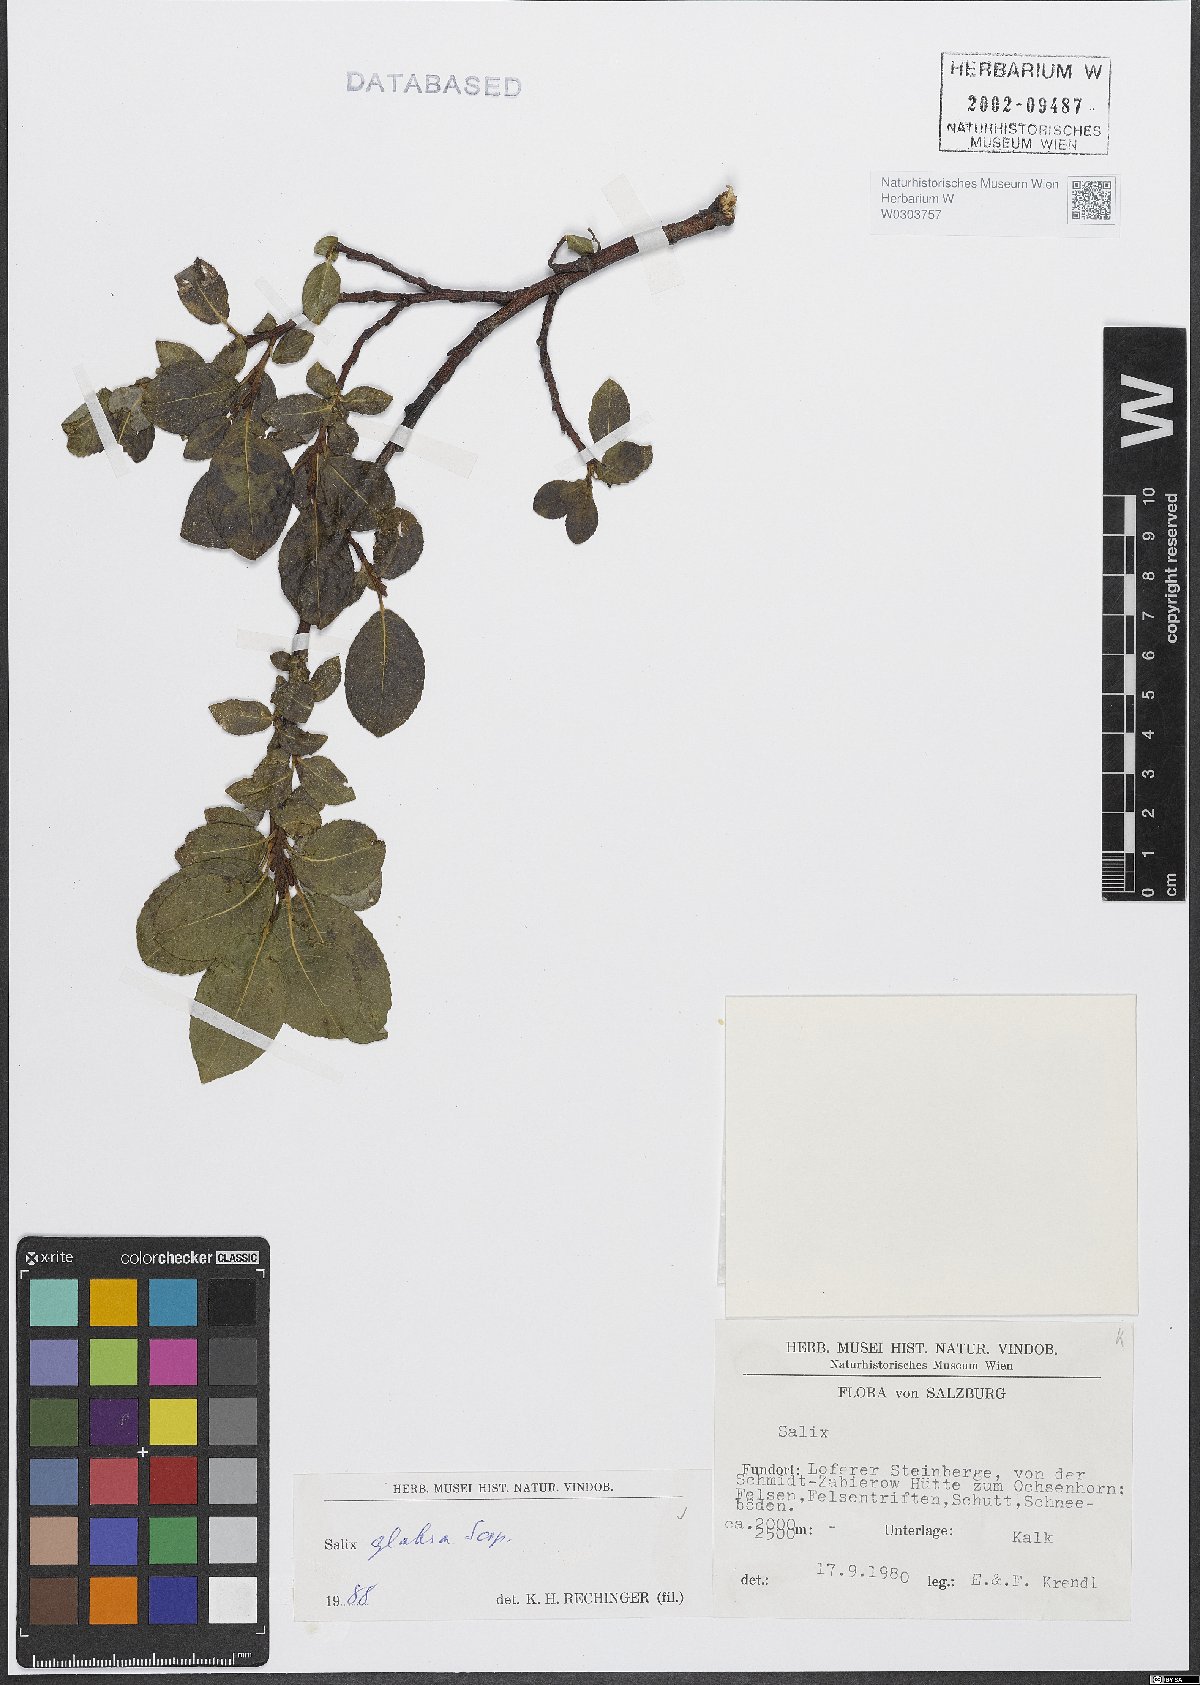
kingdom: Plantae
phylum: Tracheophyta
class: Magnoliopsida
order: Malpighiales
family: Salicaceae
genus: Salix
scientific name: Salix glabra
